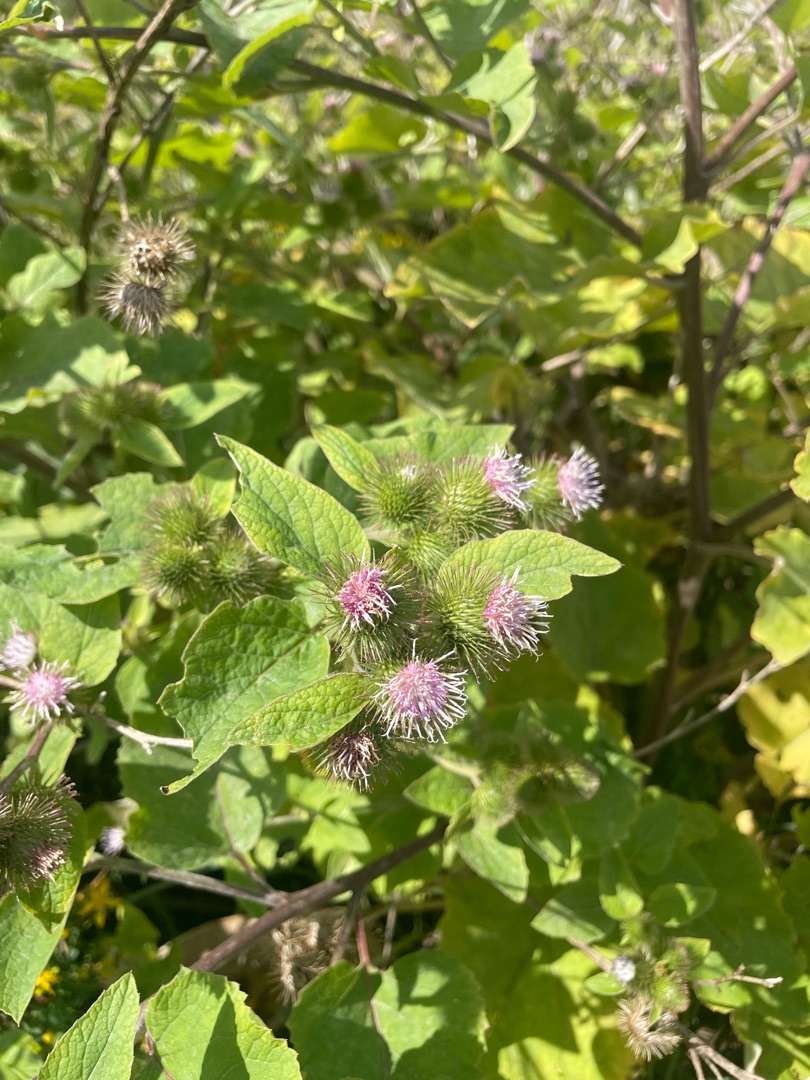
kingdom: Plantae
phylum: Tracheophyta
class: Magnoliopsida
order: Asterales
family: Asteraceae
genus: Arctium
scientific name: Arctium minus
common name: Liden burre
